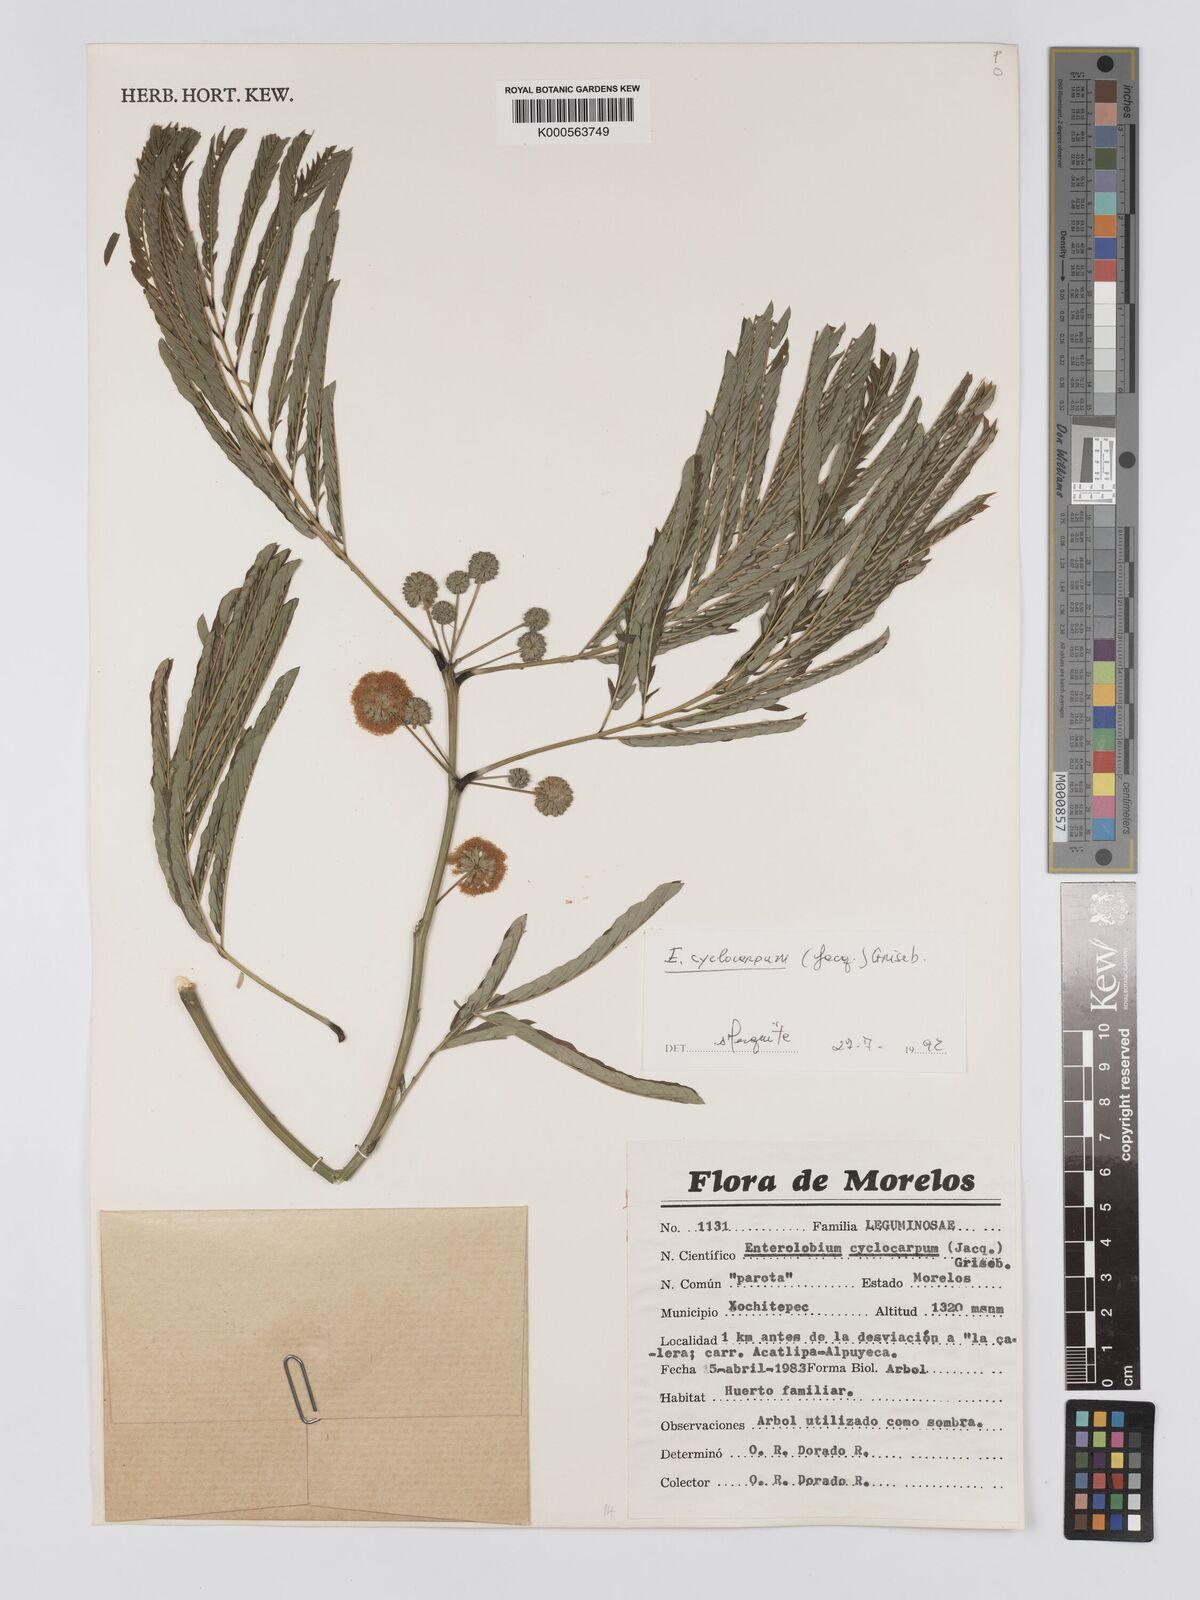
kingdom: Plantae
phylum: Tracheophyta
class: Magnoliopsida
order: Fabales
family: Fabaceae
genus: Enterolobium
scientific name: Enterolobium cyclocarpum
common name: Ear tree
